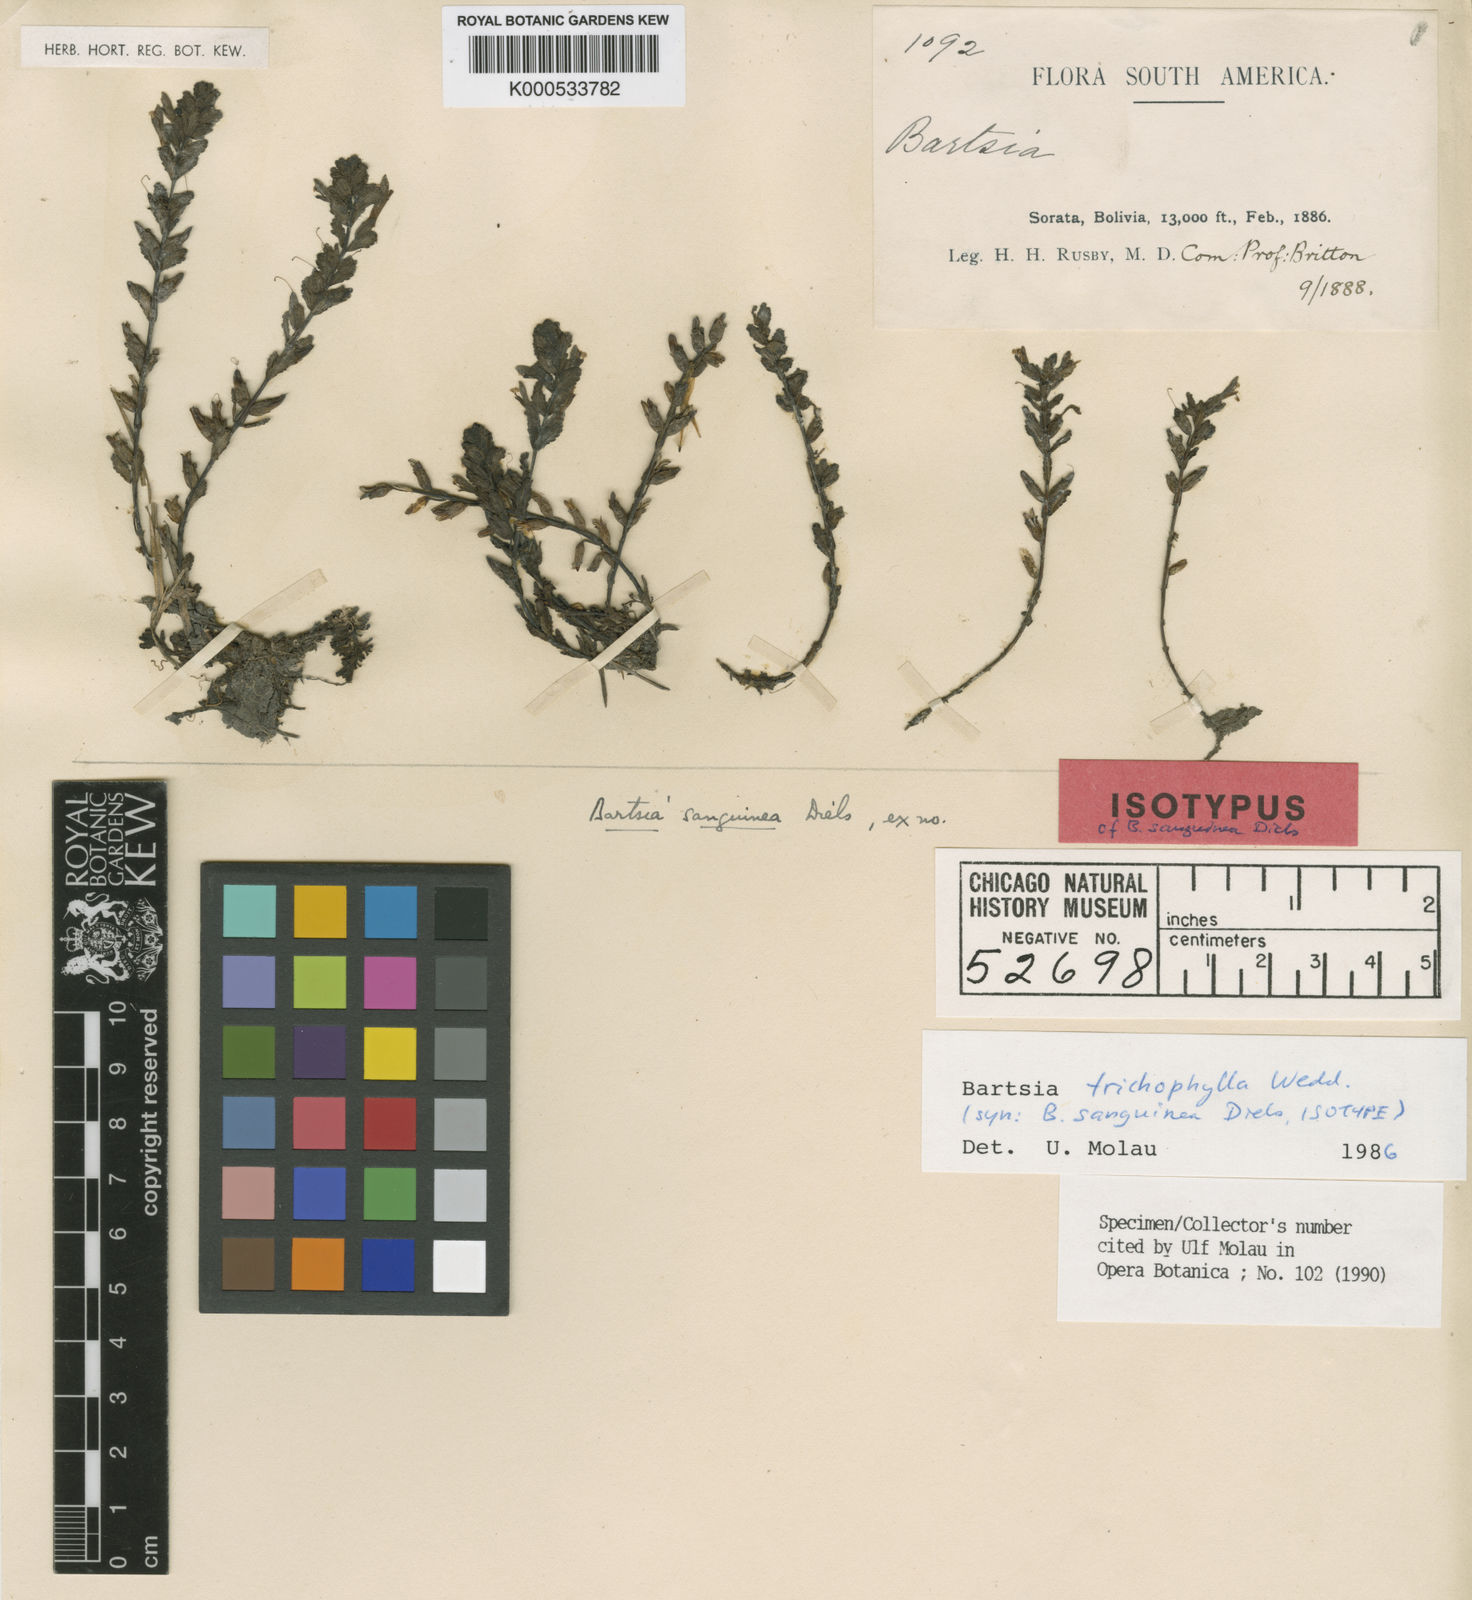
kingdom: Plantae
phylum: Tracheophyta
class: Magnoliopsida
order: Lamiales
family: Orobanchaceae
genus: Neobartsia
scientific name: Neobartsia trichophylla
